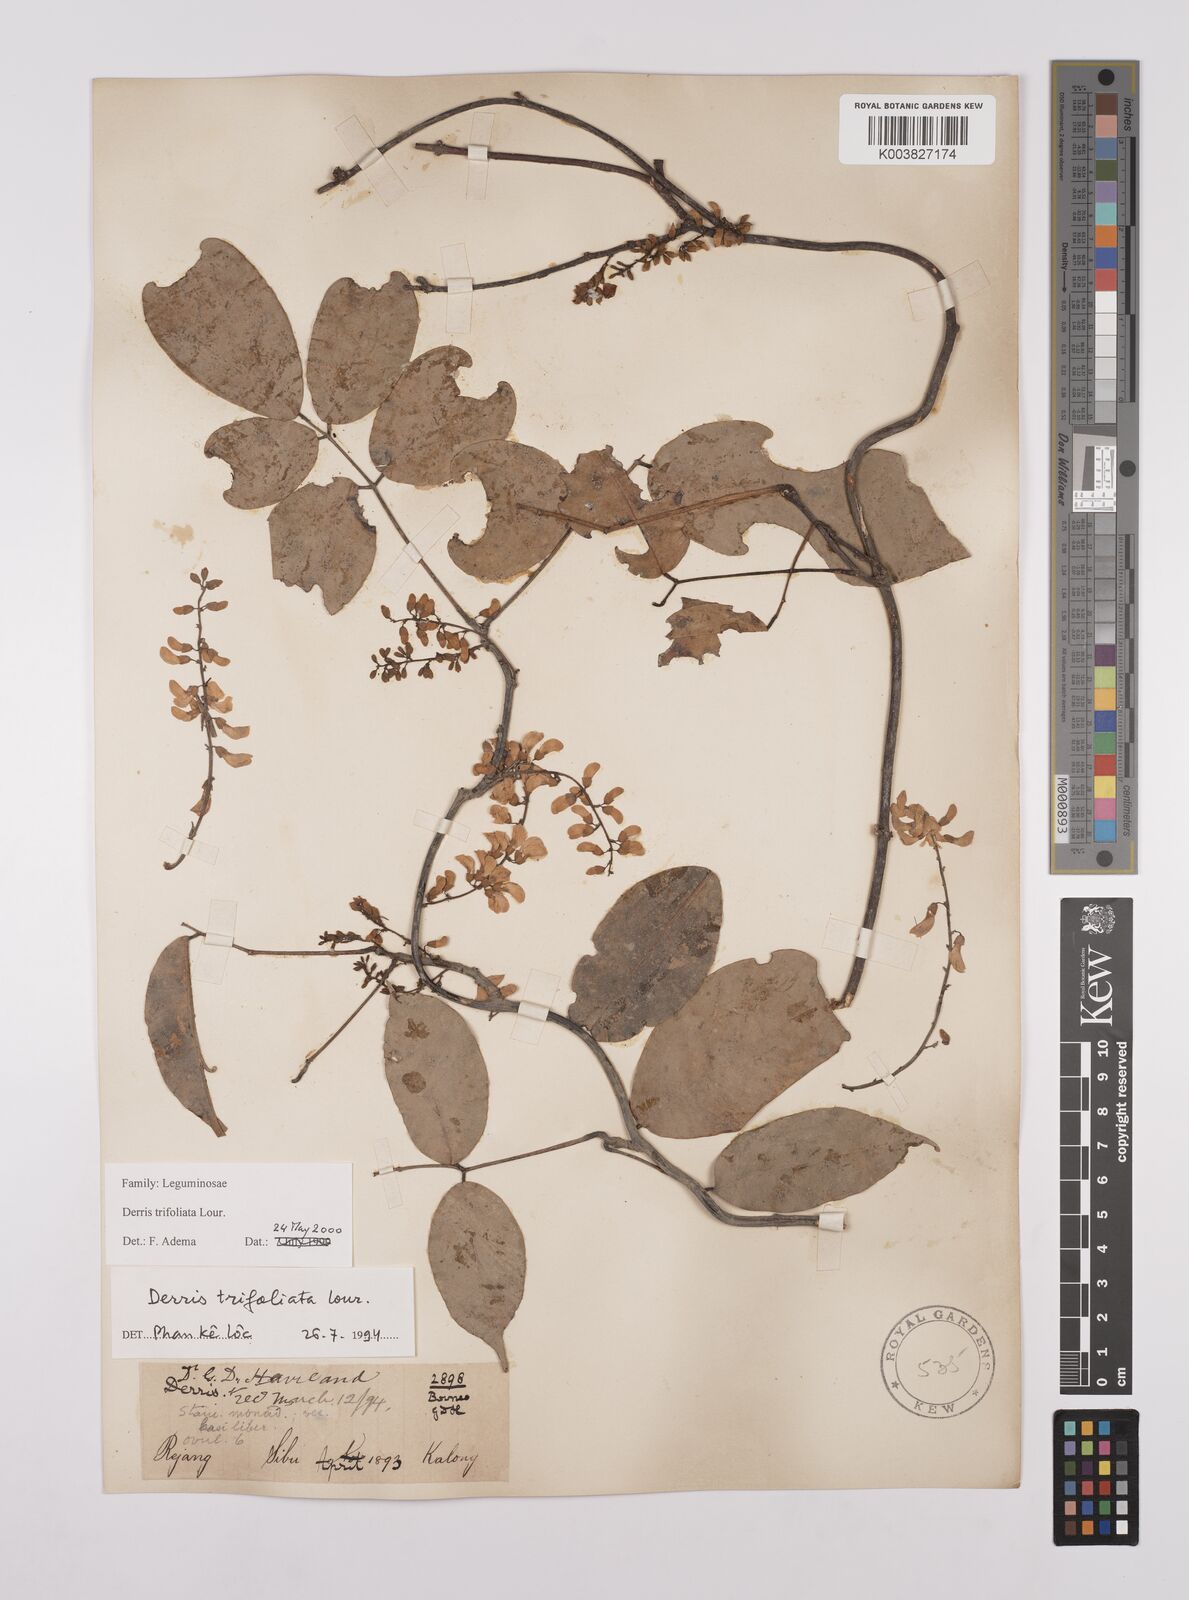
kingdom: Plantae
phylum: Tracheophyta
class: Magnoliopsida
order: Fabales
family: Fabaceae
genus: Derris
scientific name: Derris trifoliata
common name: Three-leaf derris
